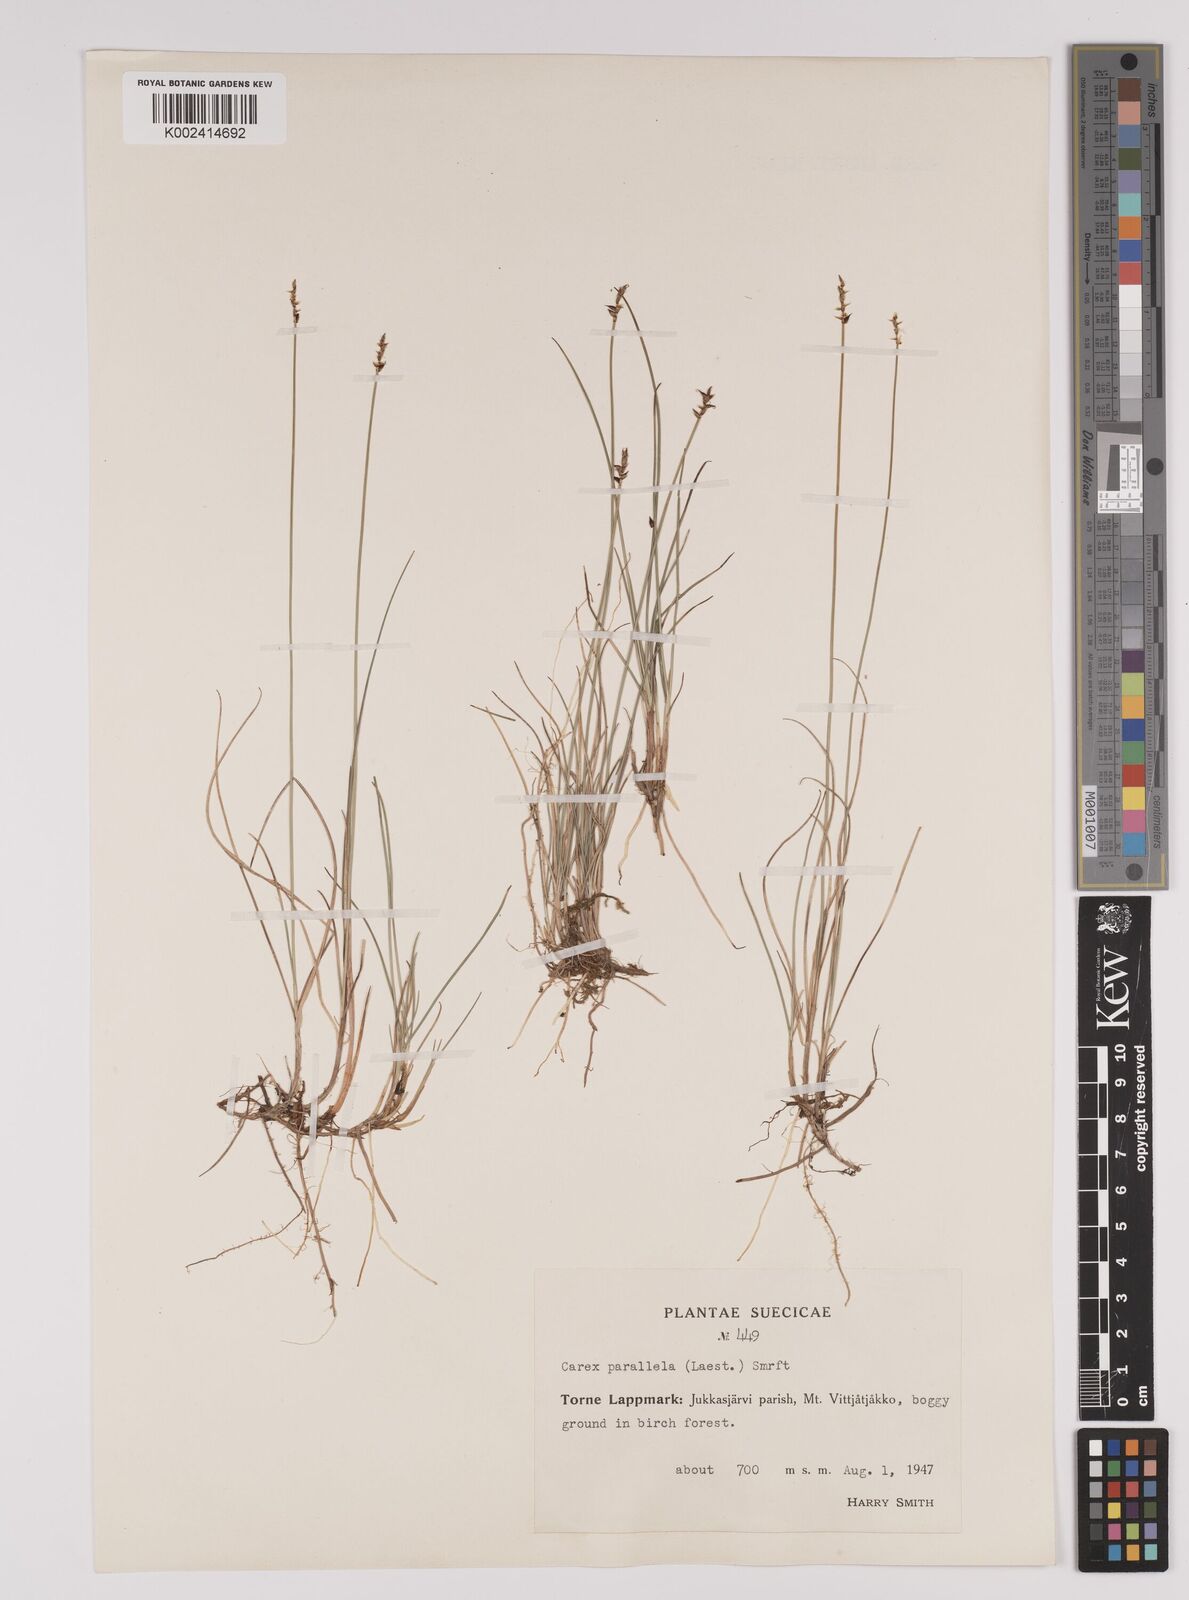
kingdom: Plantae
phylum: Tracheophyta
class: Liliopsida
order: Poales
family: Cyperaceae
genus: Carex
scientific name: Carex parallela
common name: Parallel sedge
